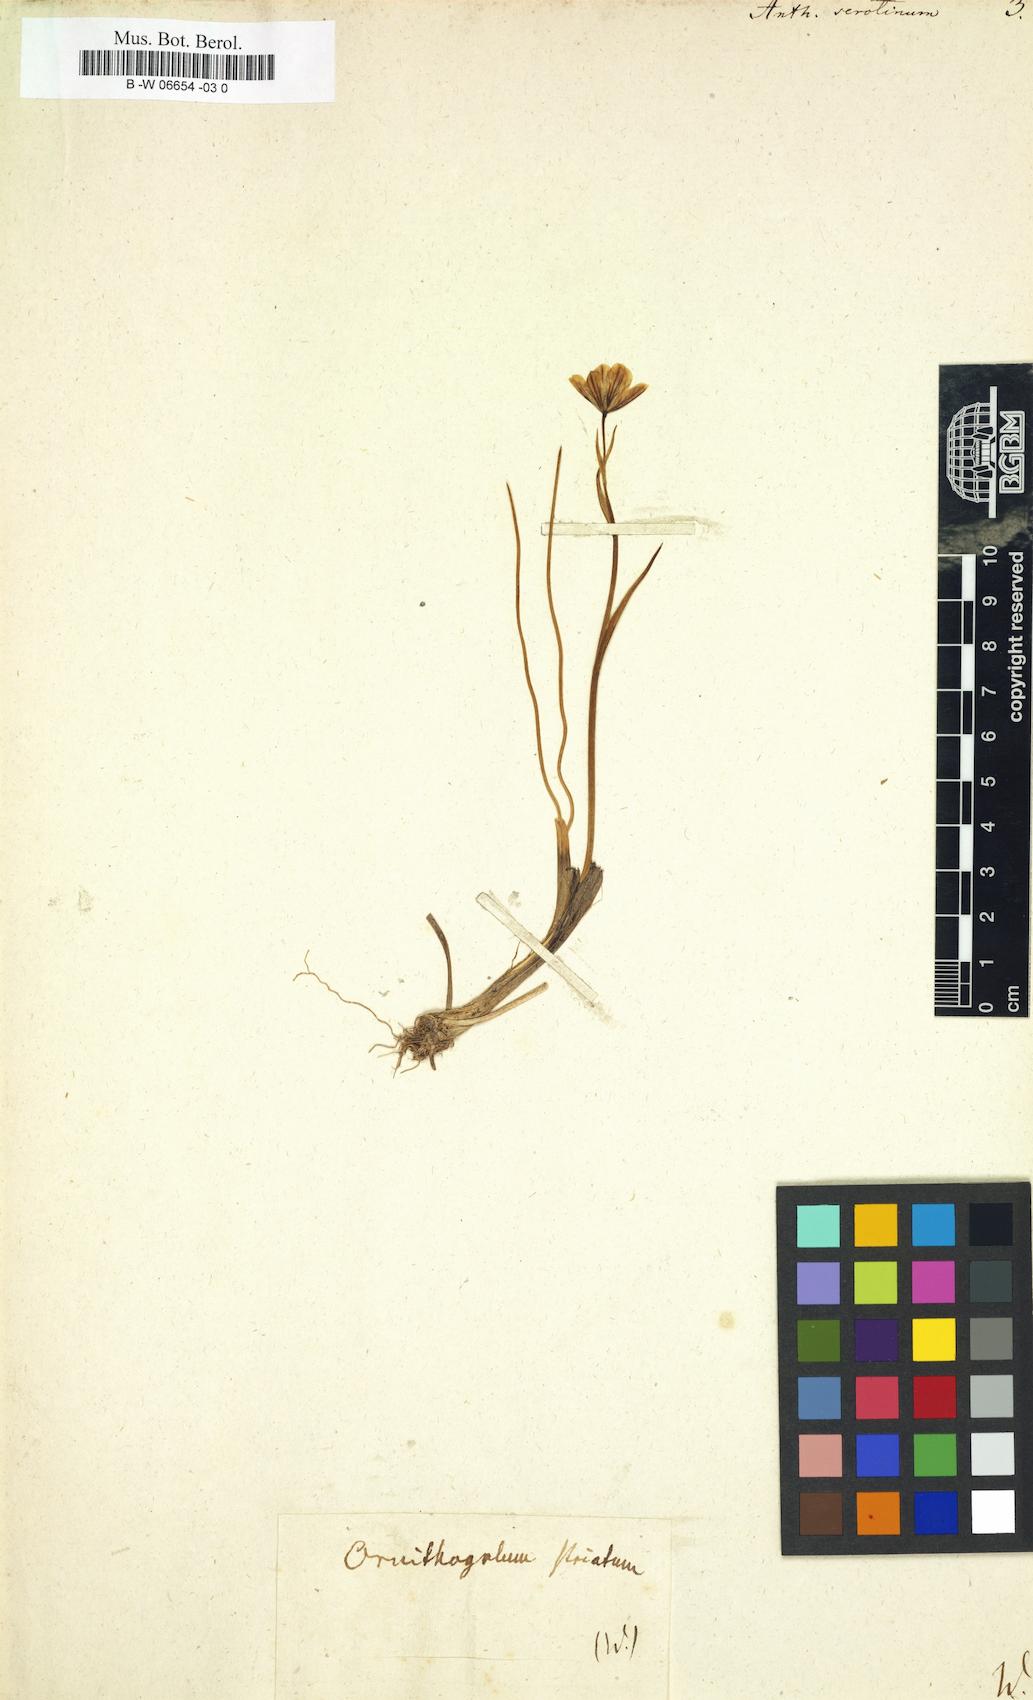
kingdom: Plantae
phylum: Tracheophyta
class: Liliopsida
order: Liliales
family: Liliaceae
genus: Gagea
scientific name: Gagea serotina
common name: Snowdon lily
